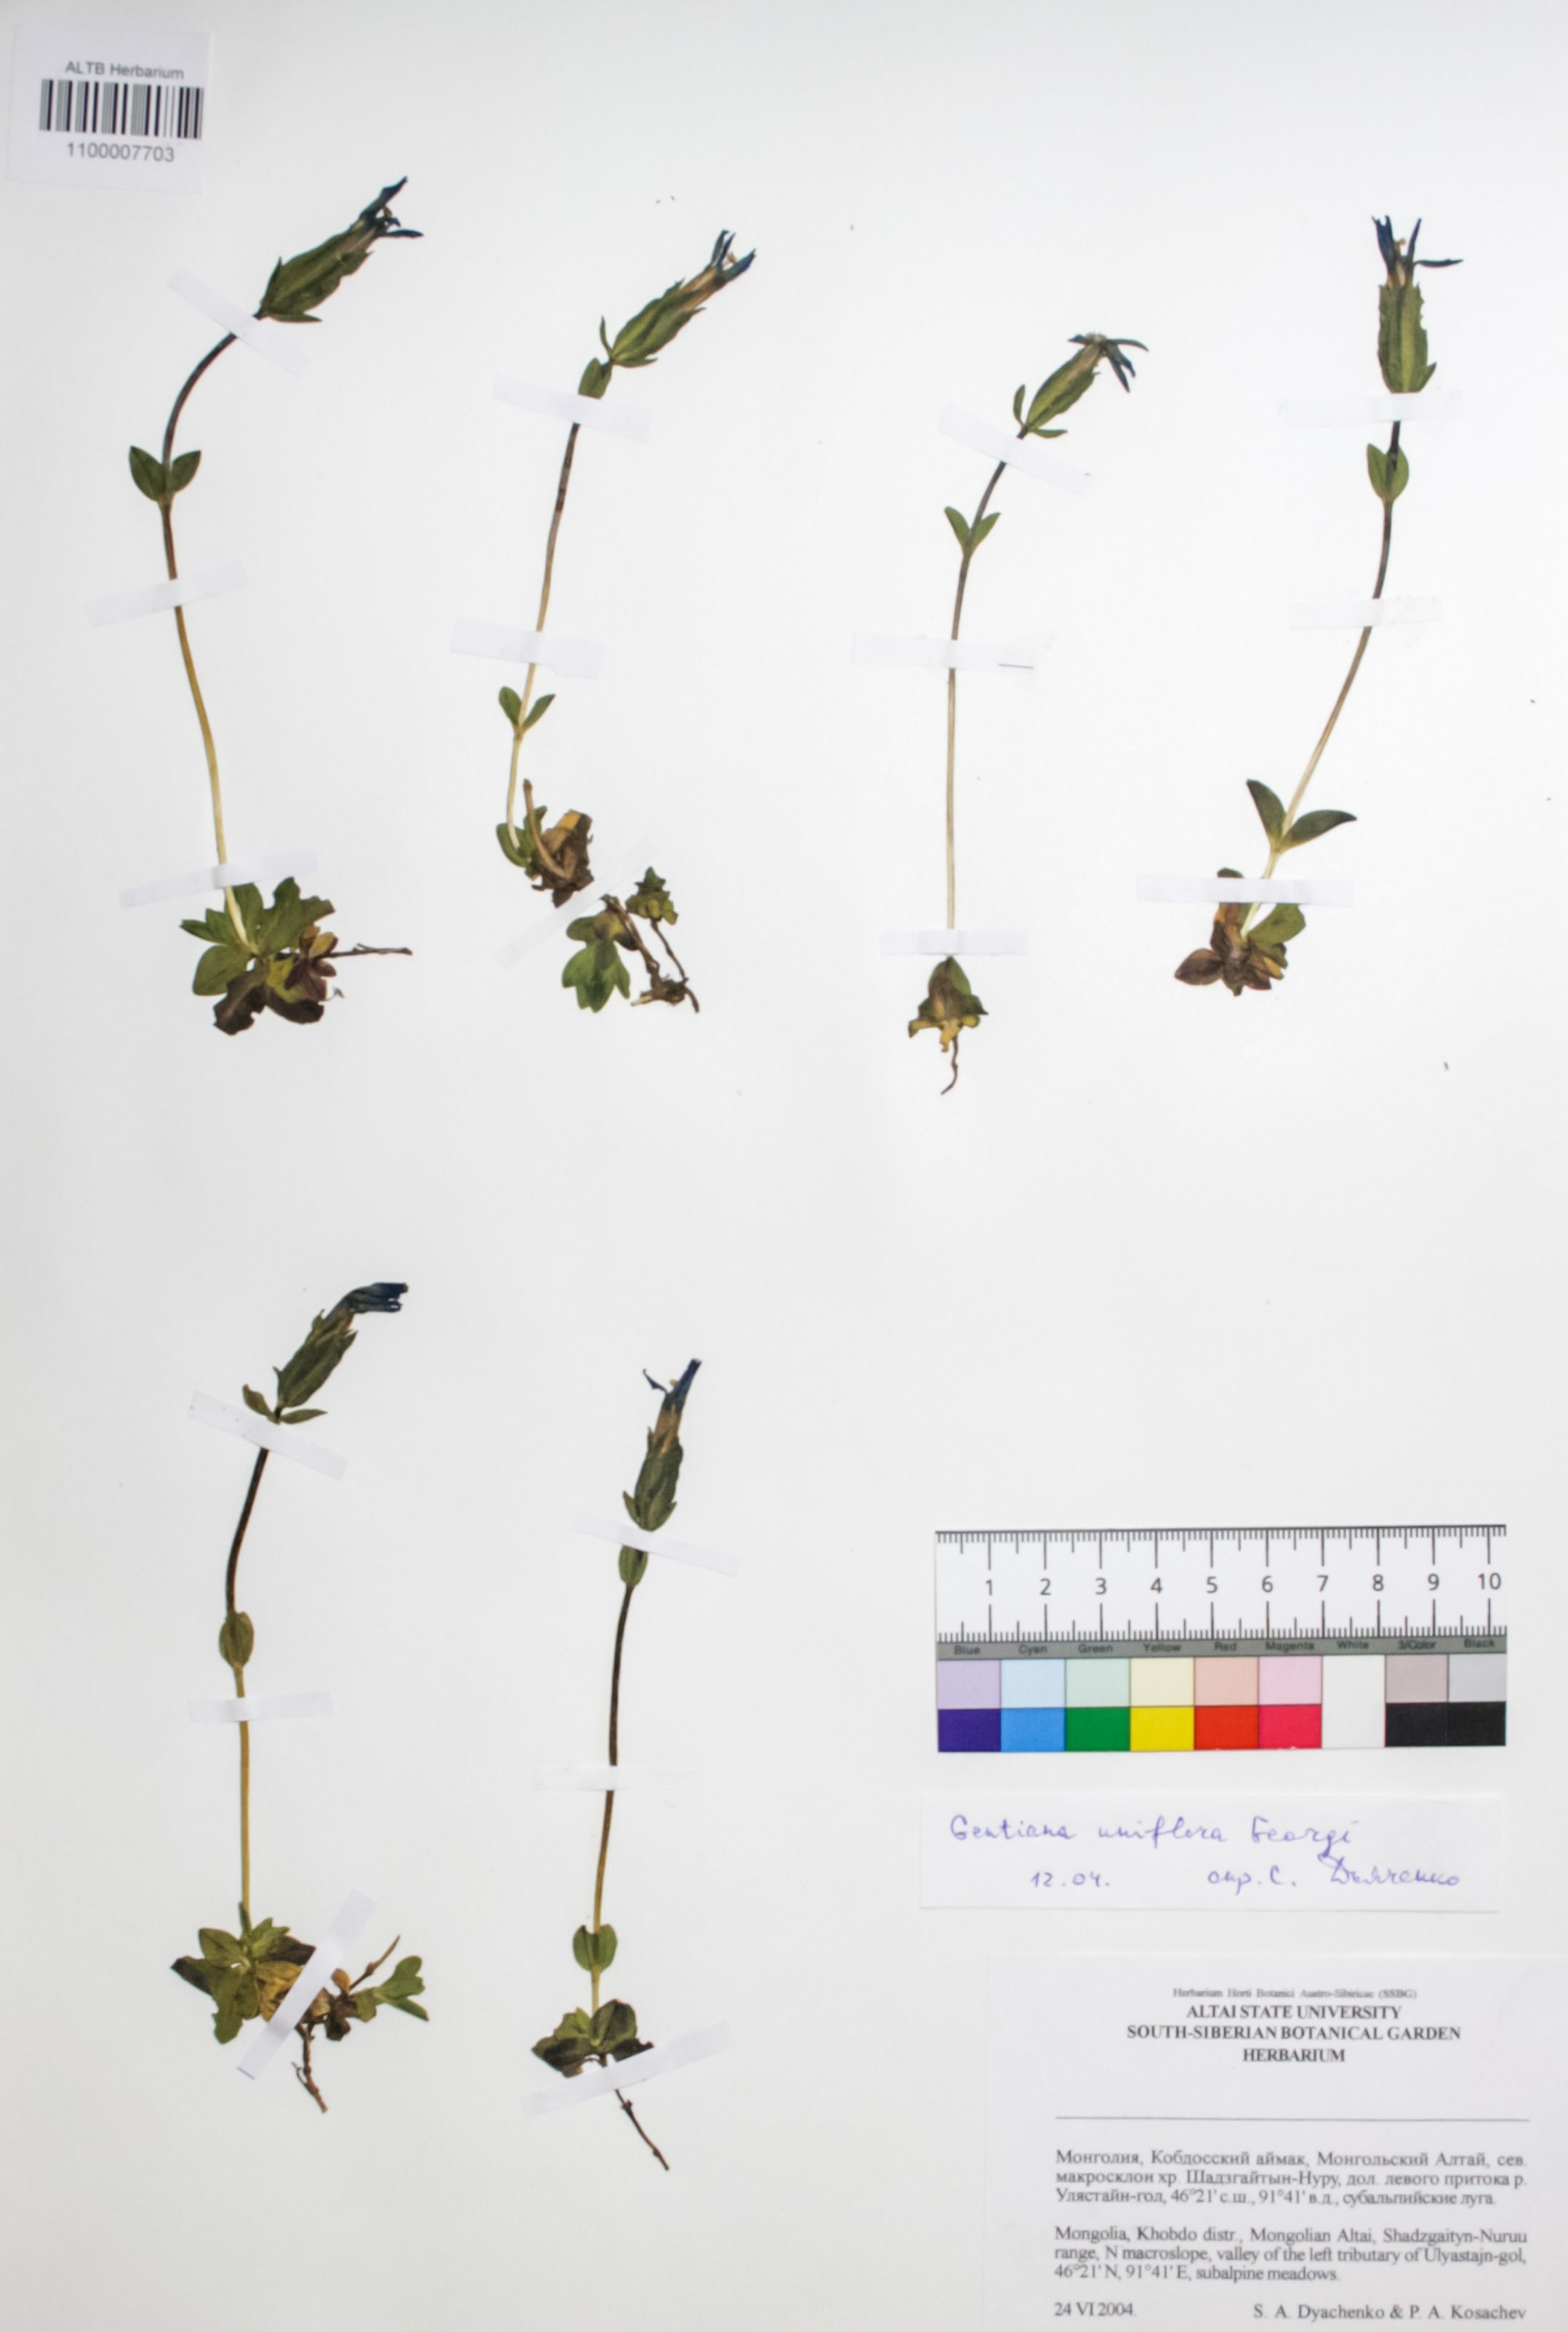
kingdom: Plantae
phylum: Tracheophyta
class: Magnoliopsida
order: Gentianales
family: Gentianaceae
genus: Gentiana
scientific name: Gentiana uniflora
